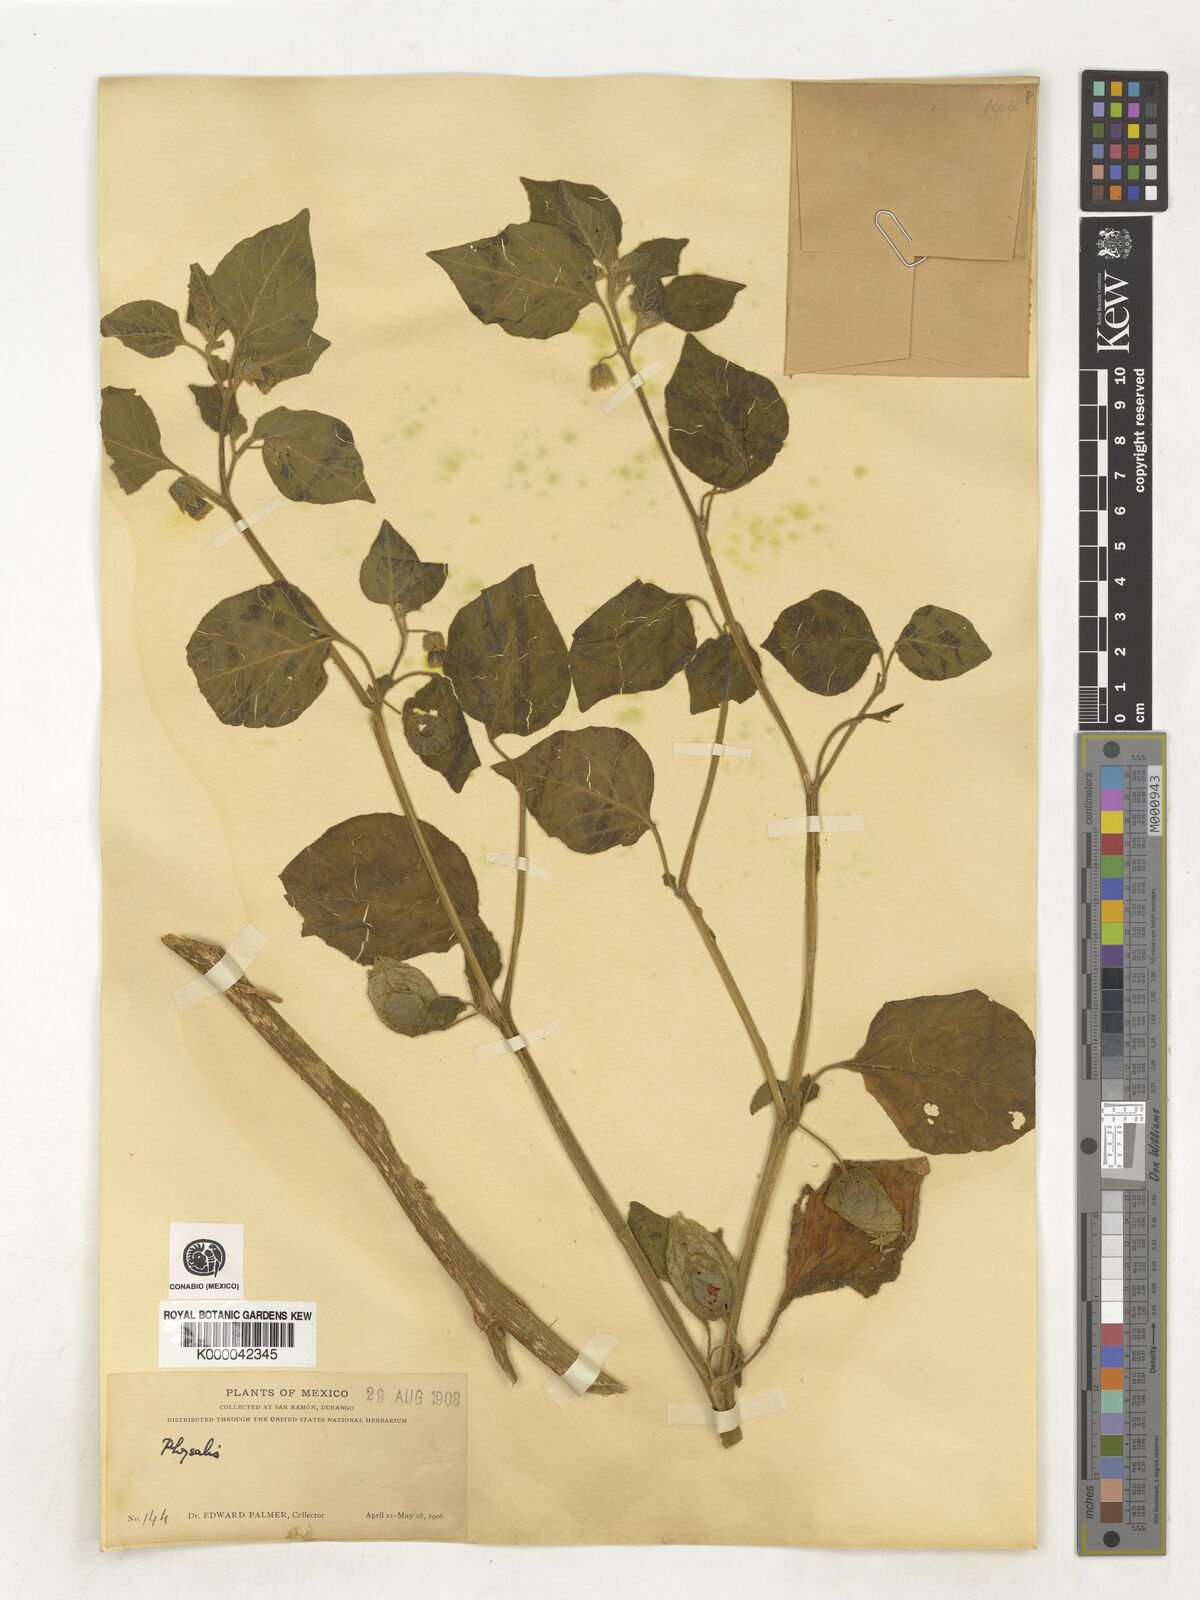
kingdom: Plantae
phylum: Tracheophyta
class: Magnoliopsida
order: Solanales
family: Solanaceae
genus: Physalis
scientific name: Physalis
